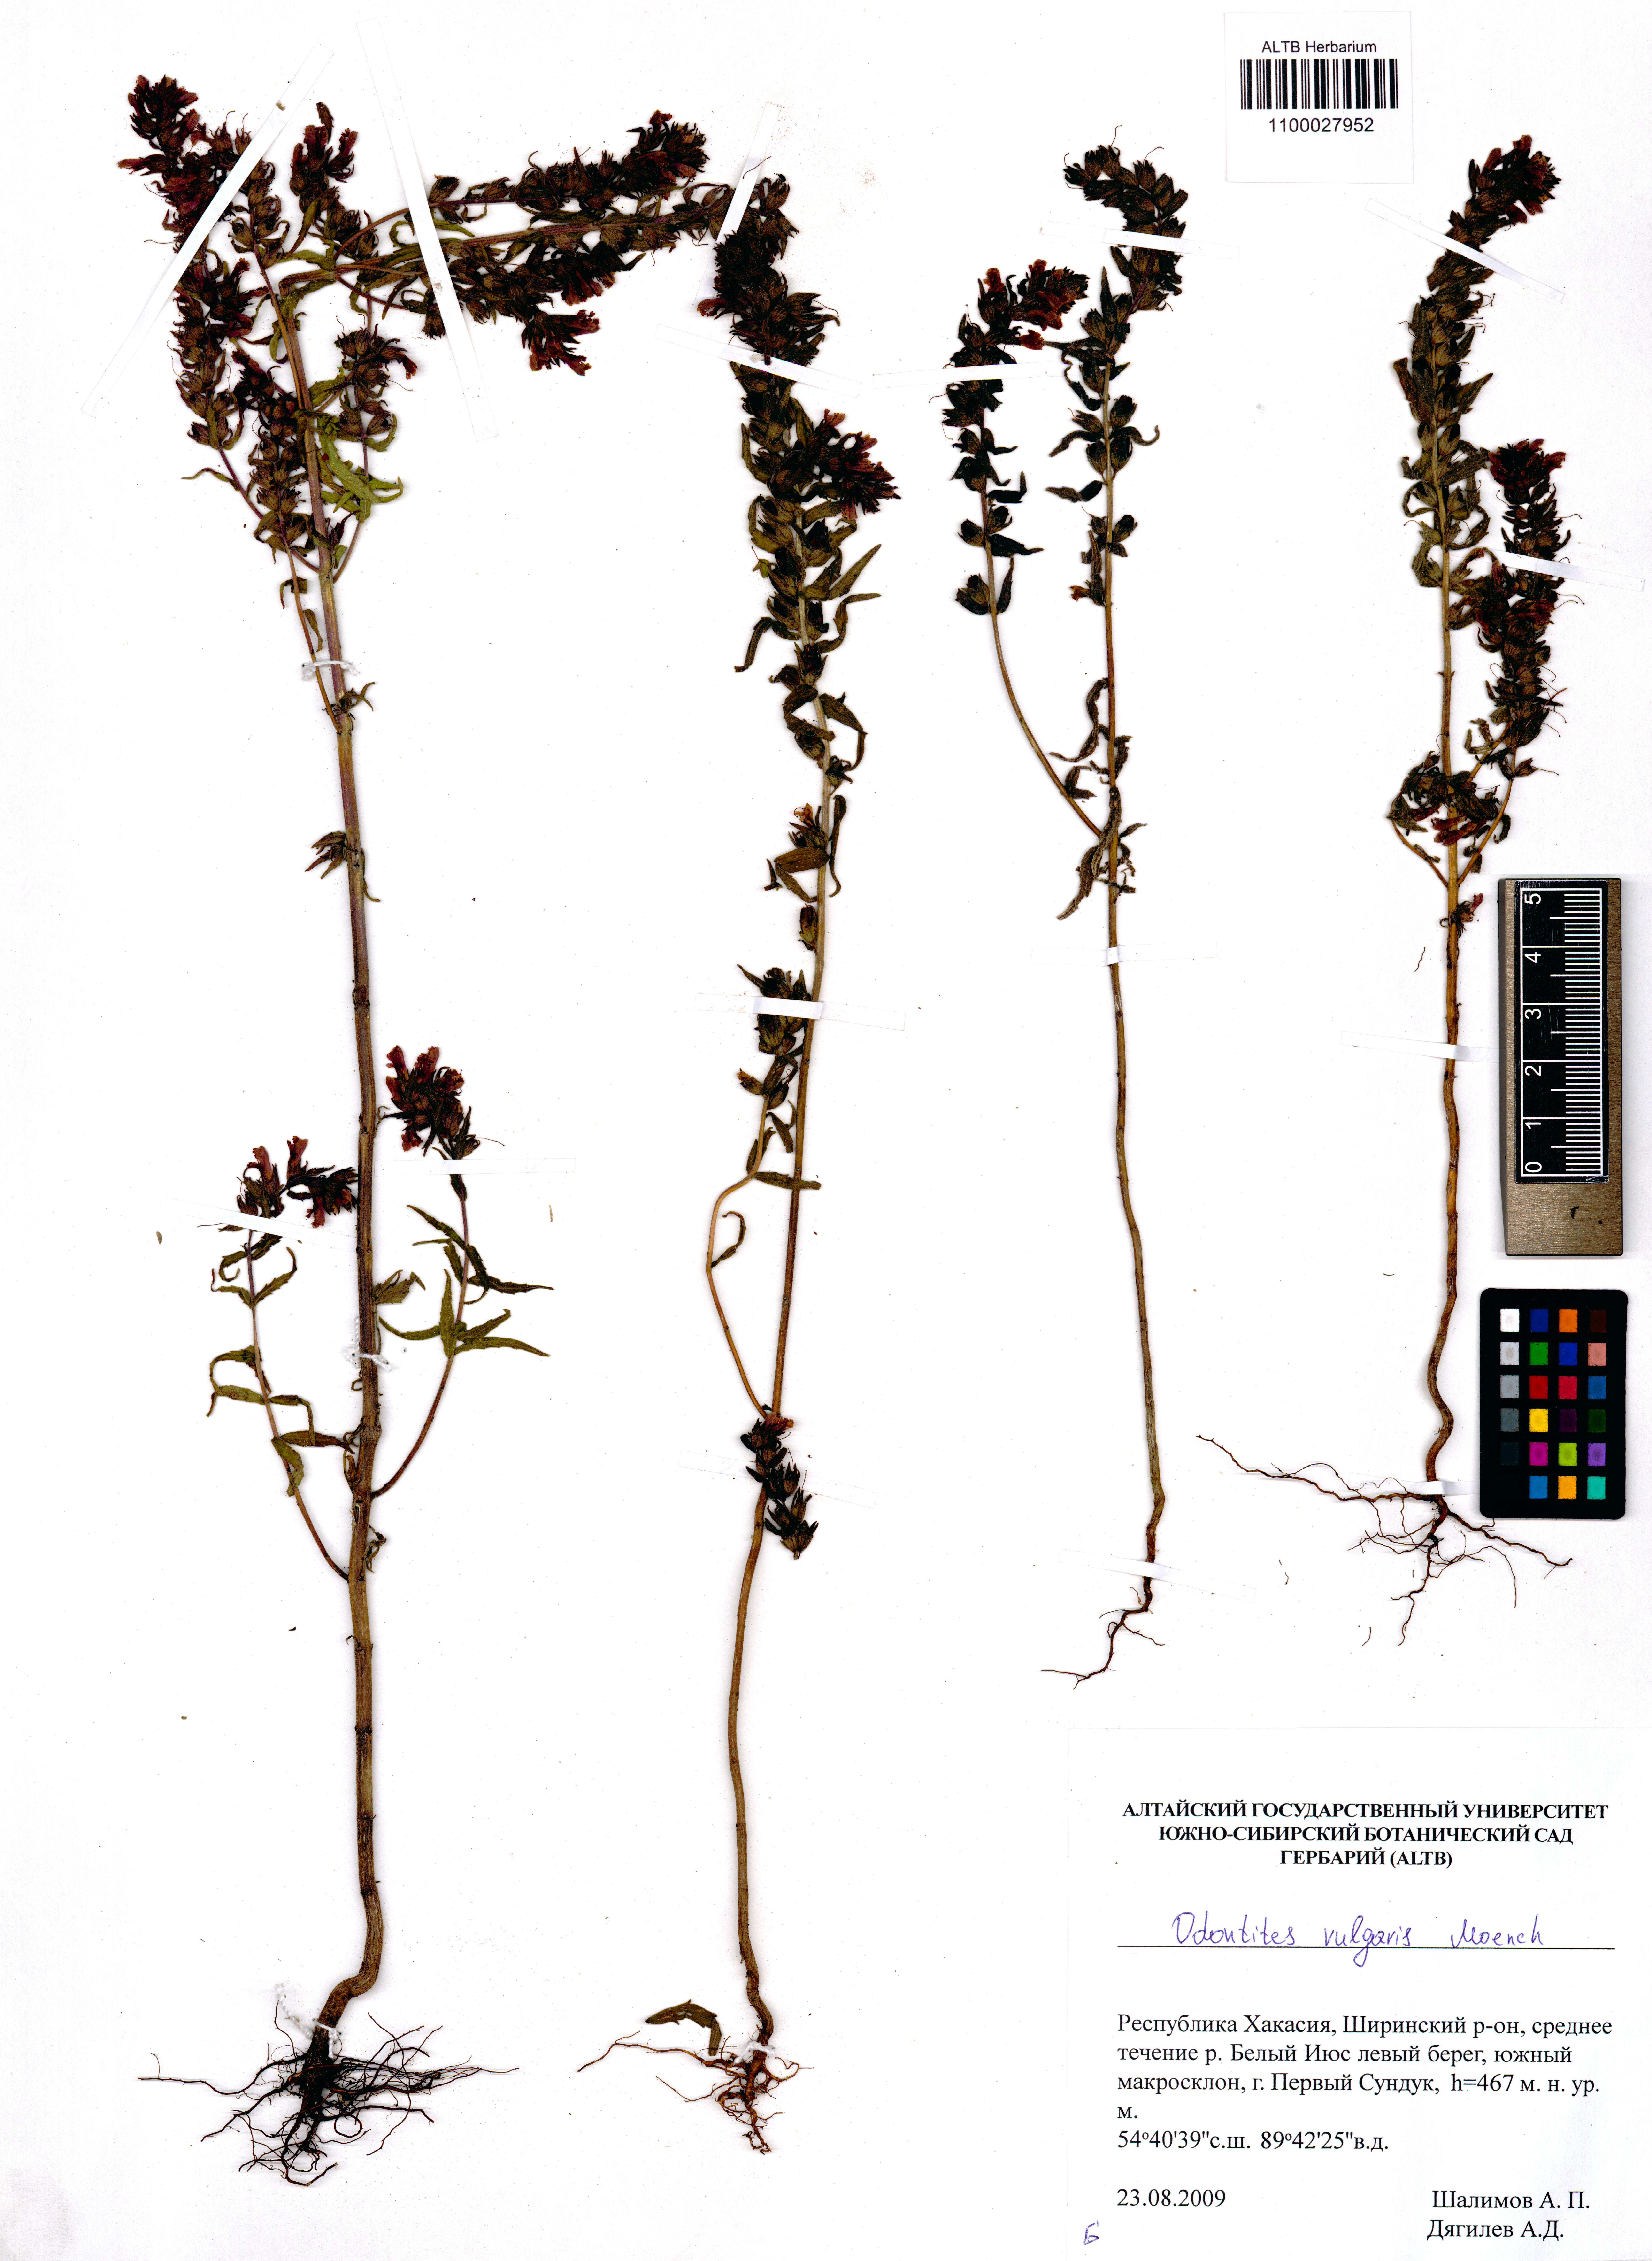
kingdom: Plantae
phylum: Tracheophyta
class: Magnoliopsida
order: Lamiales
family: Orobanchaceae
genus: Odontites
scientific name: Odontites vulgaris
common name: Broomrape
